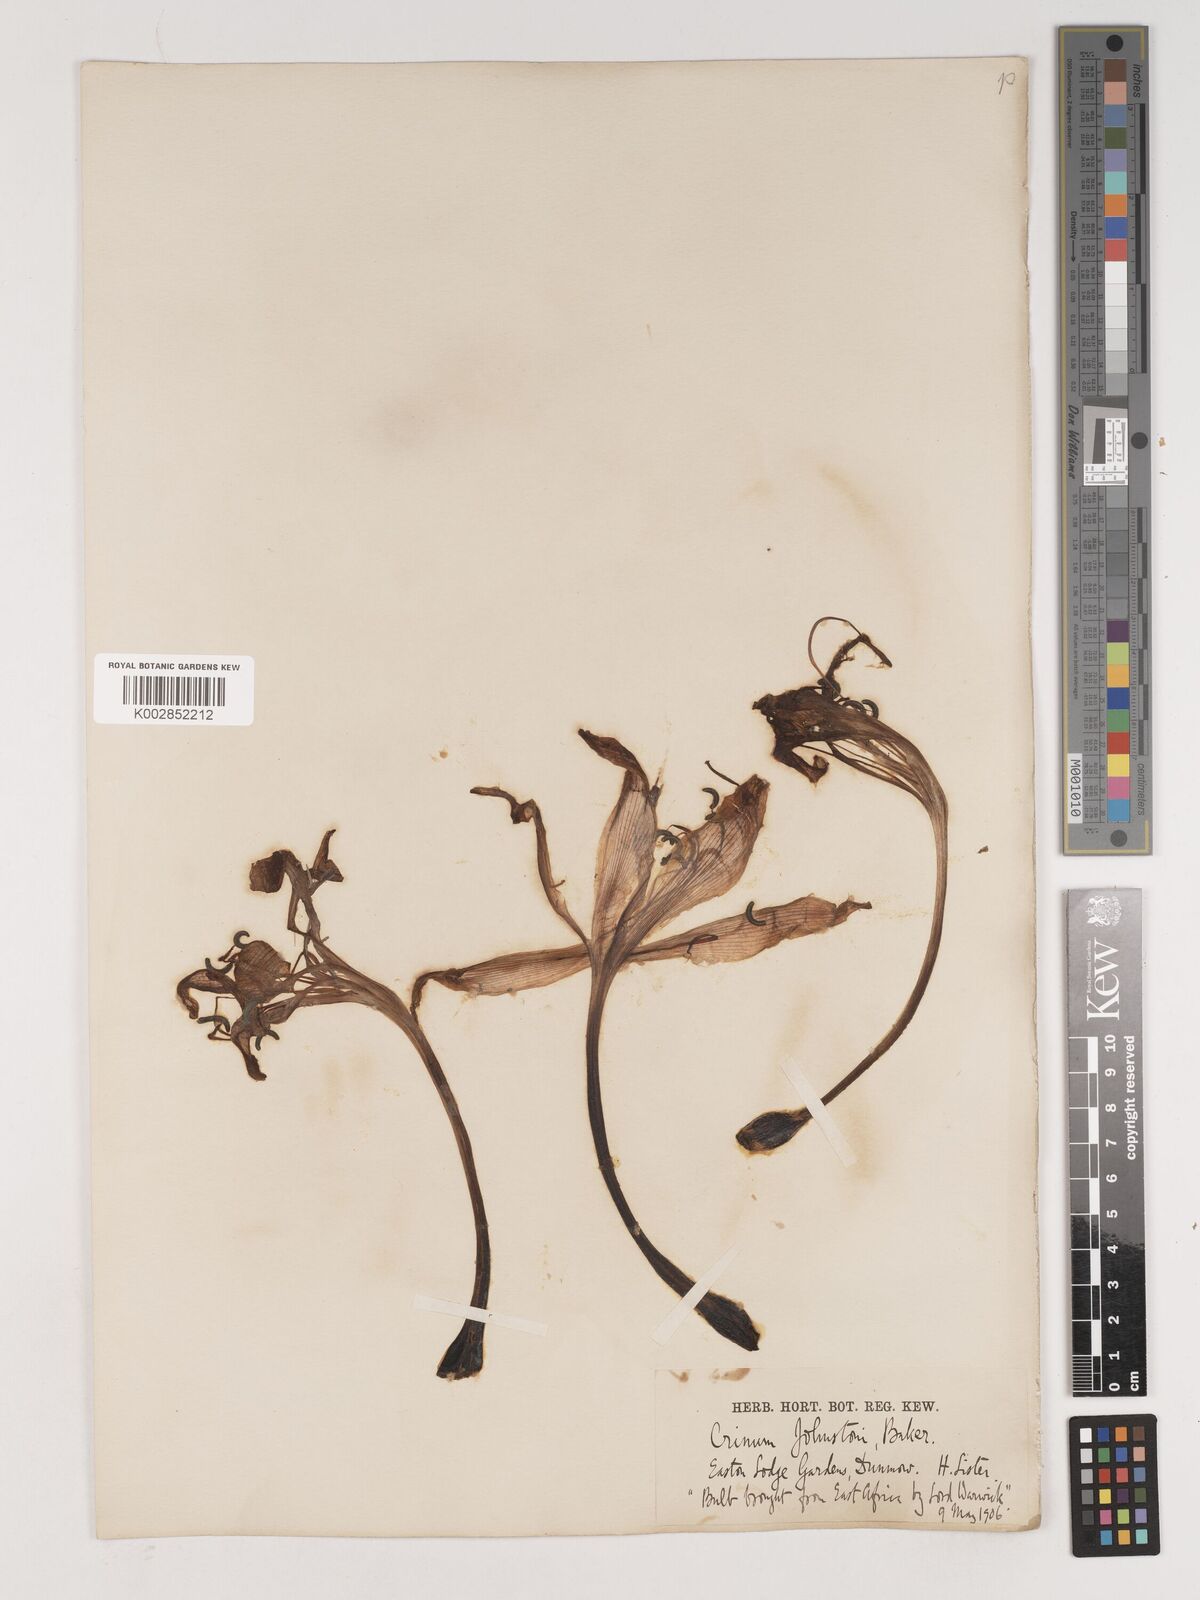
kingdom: Plantae
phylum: Tracheophyta
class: Liliopsida
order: Asparagales
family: Amaryllidaceae
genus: Crinum
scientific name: Crinum kirkii
